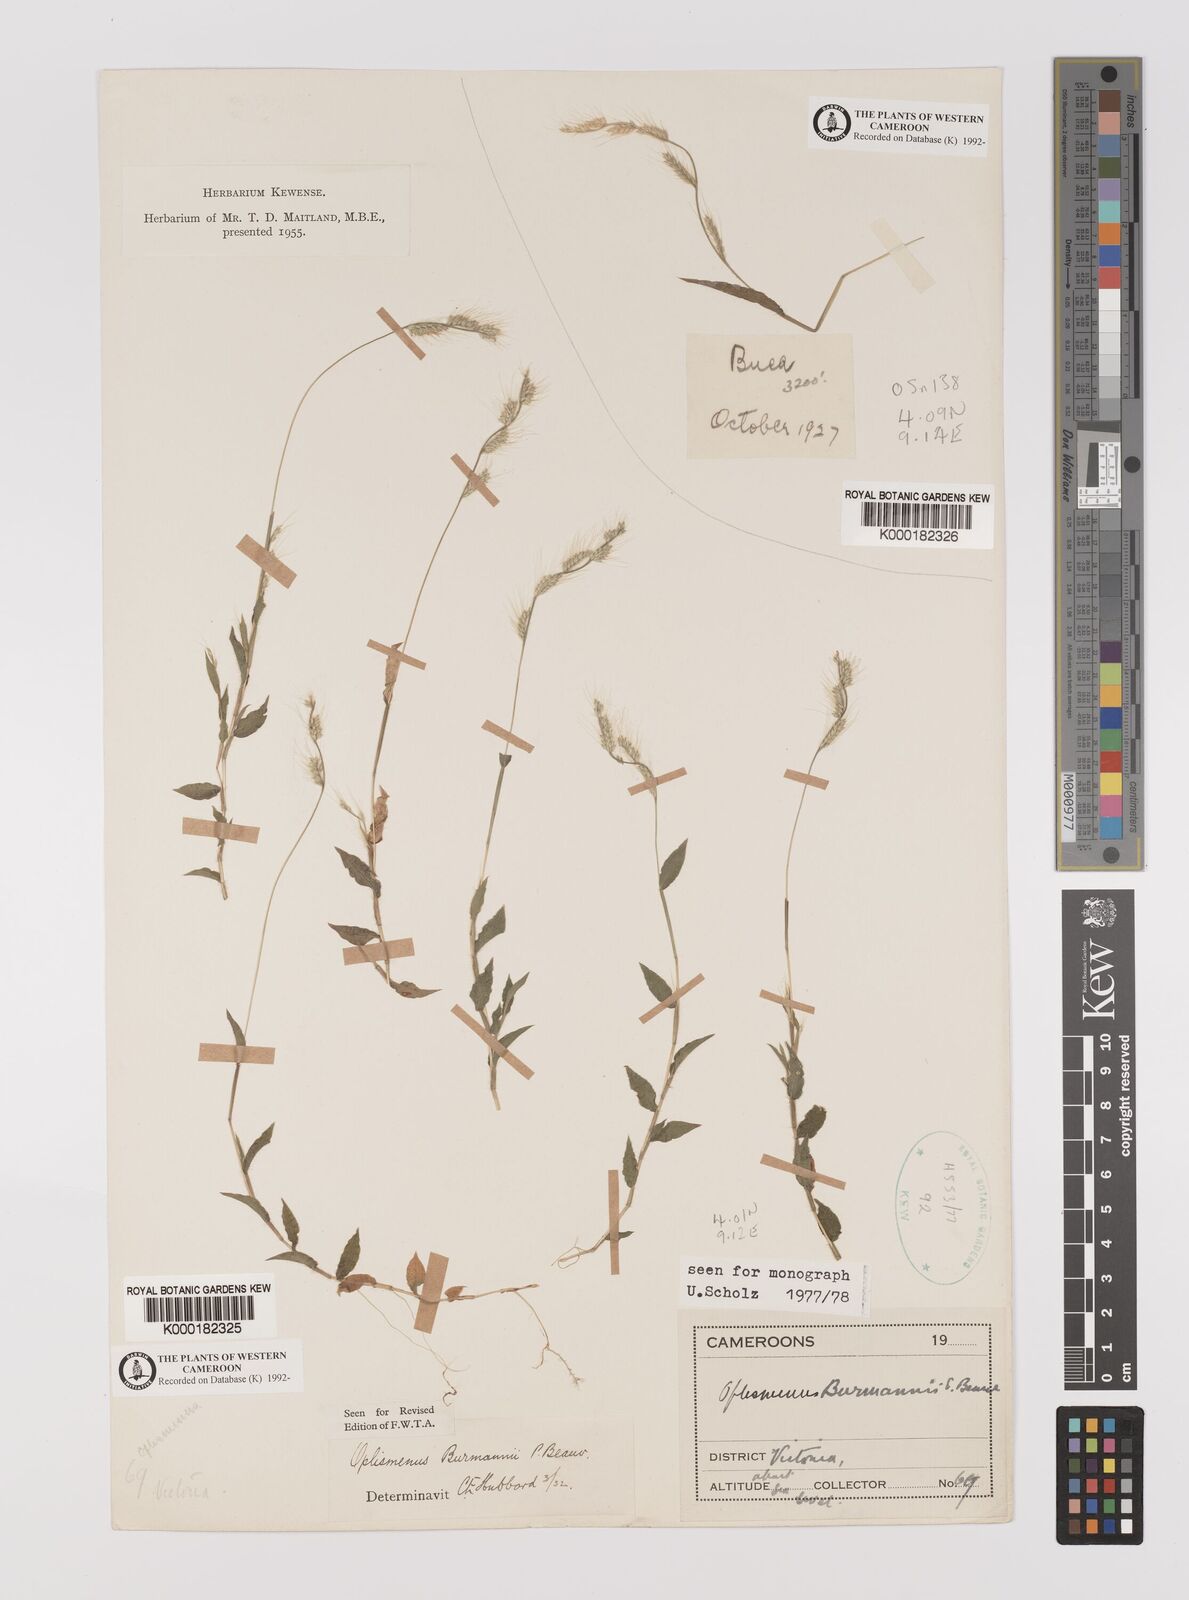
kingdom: Plantae
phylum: Tracheophyta
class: Liliopsida
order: Poales
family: Poaceae
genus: Oplismenus
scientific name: Oplismenus burmanni
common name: Burmann's basketgrass
